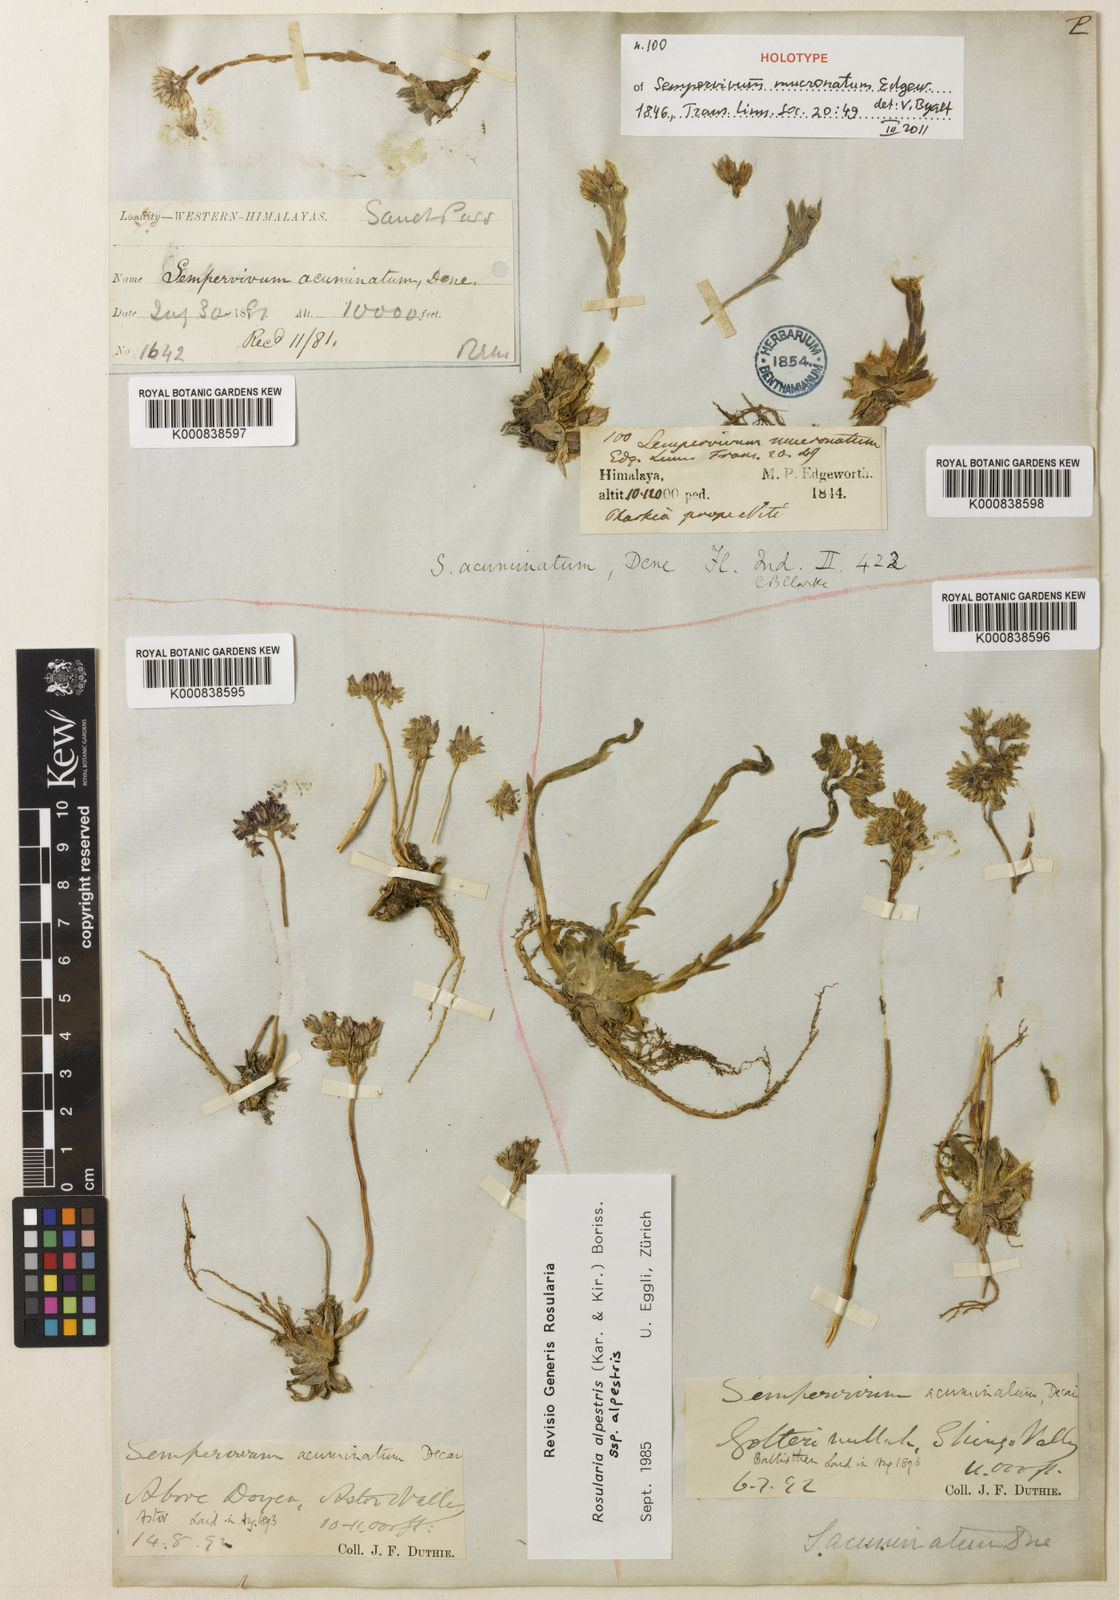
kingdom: Plantae
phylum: Tracheophyta
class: Magnoliopsida
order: Saxifragales
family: Crassulaceae
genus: Rosularia
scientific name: Rosularia alpestris
